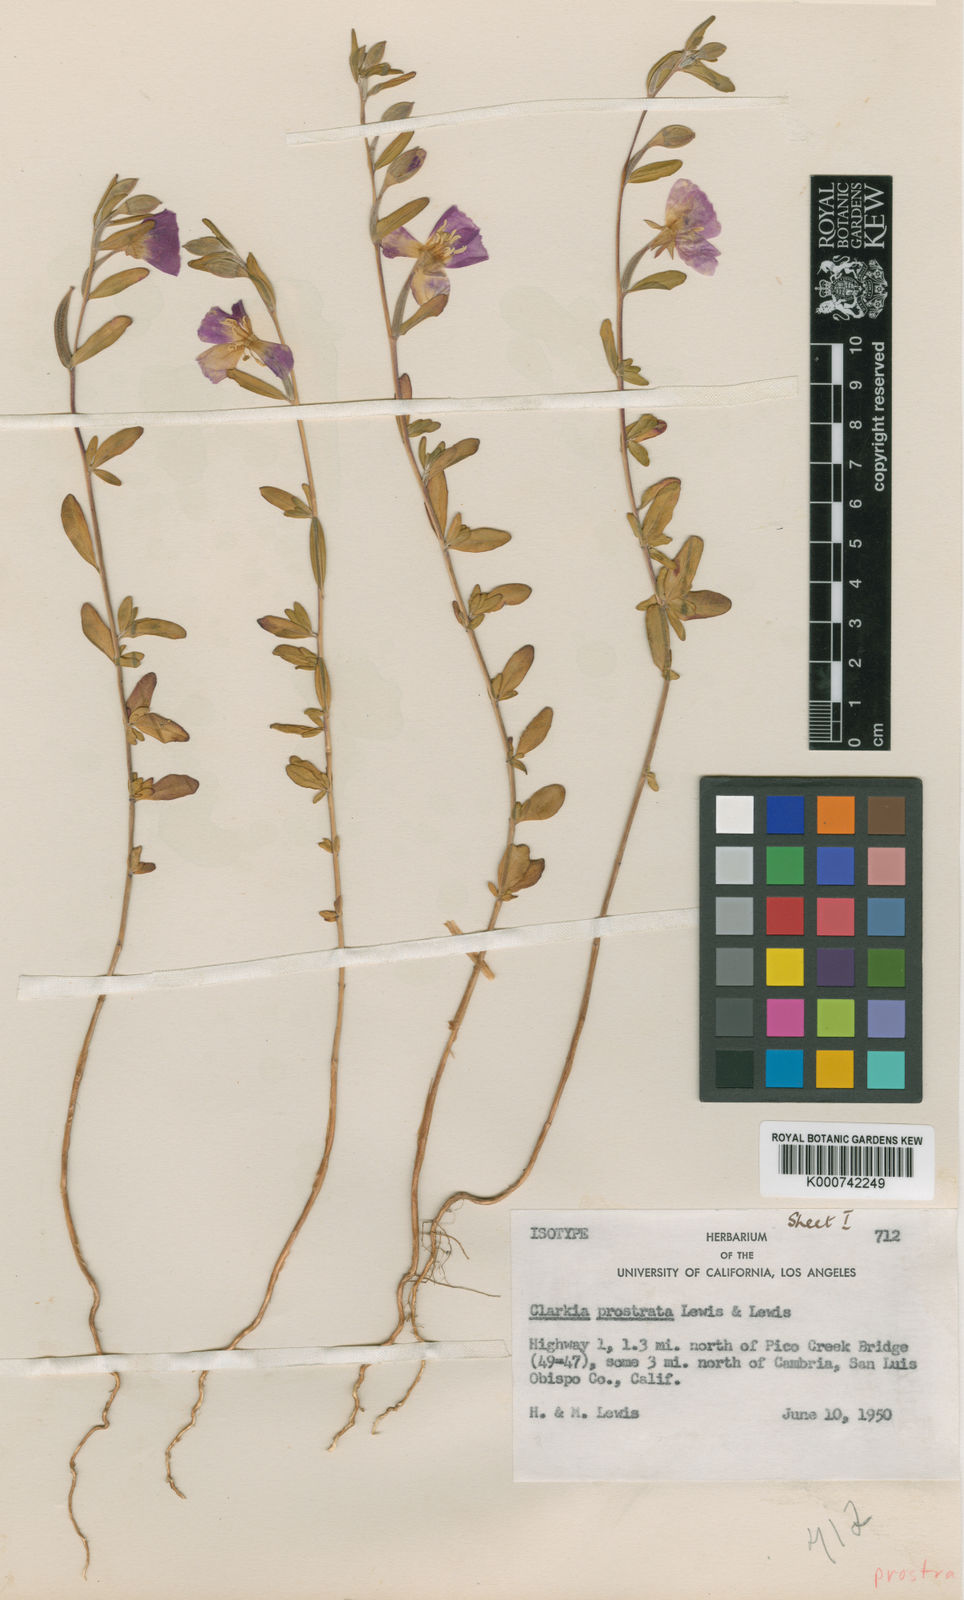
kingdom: Plantae
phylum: Tracheophyta
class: Magnoliopsida
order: Myrtales
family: Onagraceae
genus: Clarkia
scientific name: Clarkia prostrata
